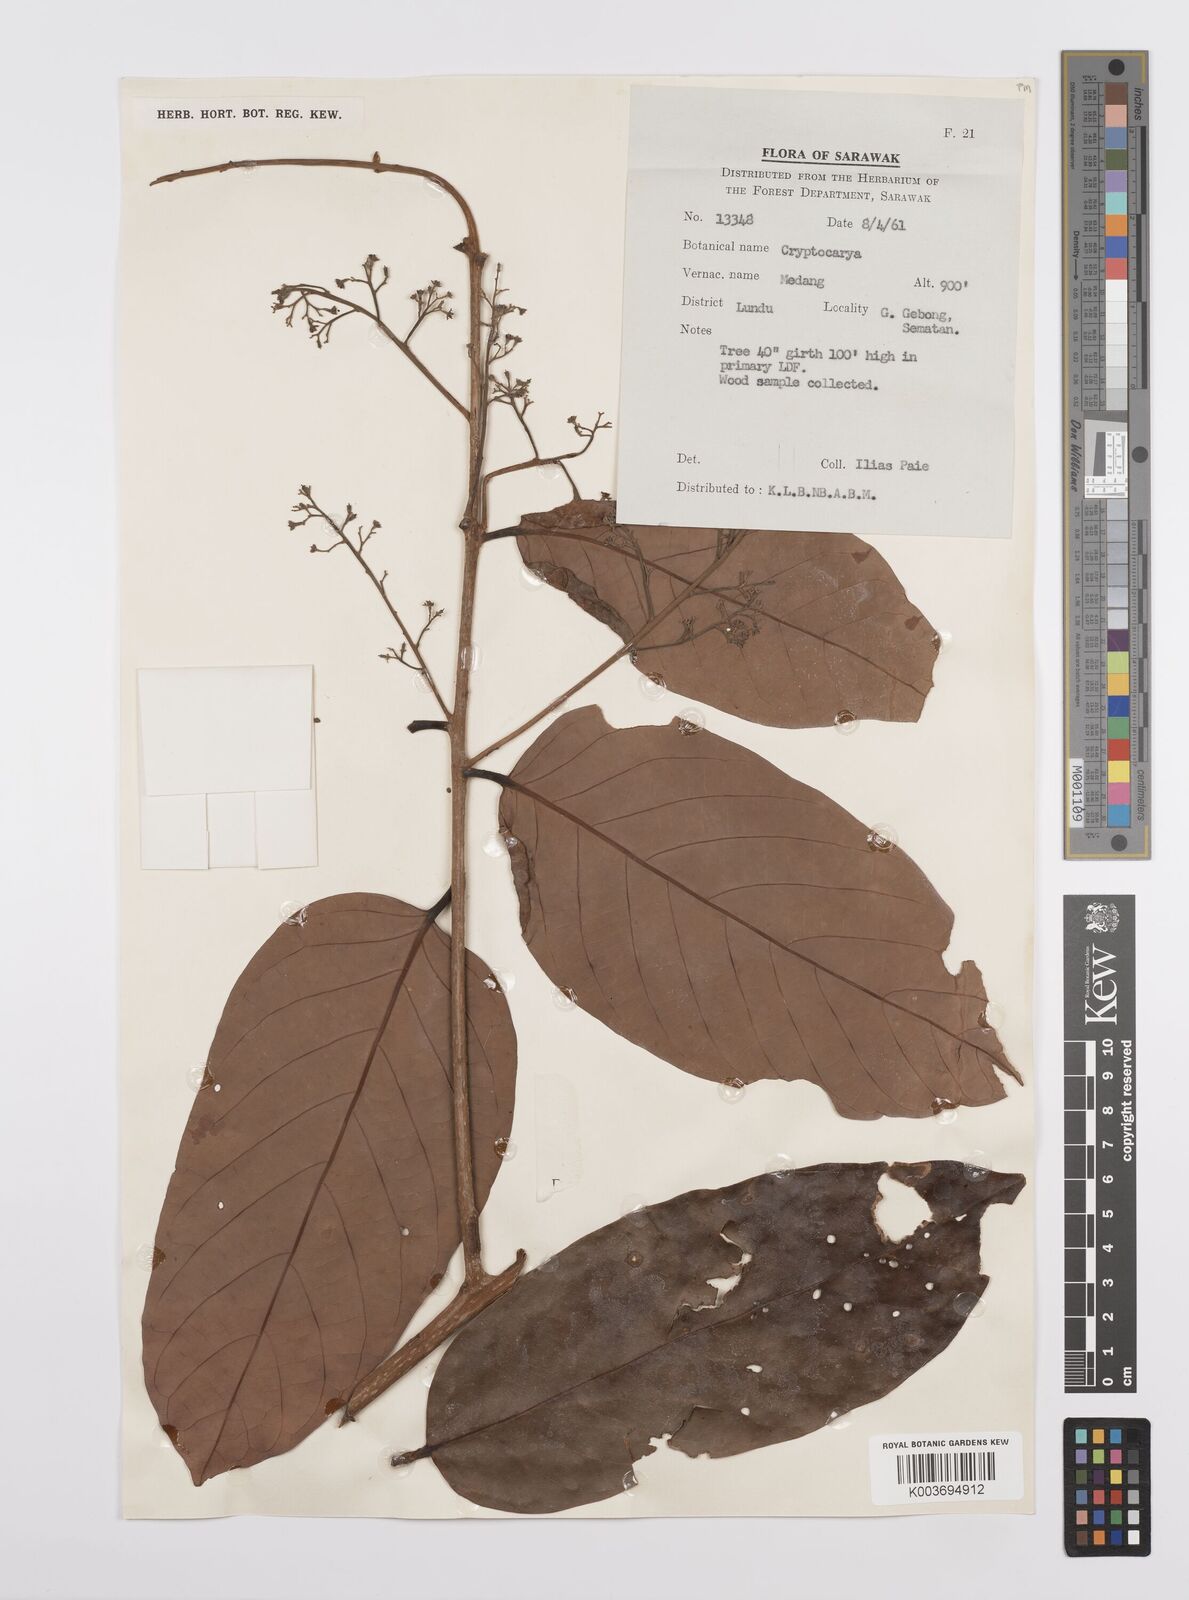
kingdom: Plantae
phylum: Tracheophyta
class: Magnoliopsida
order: Laurales
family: Lauraceae
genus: Cryptocarya
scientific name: Cryptocarya
